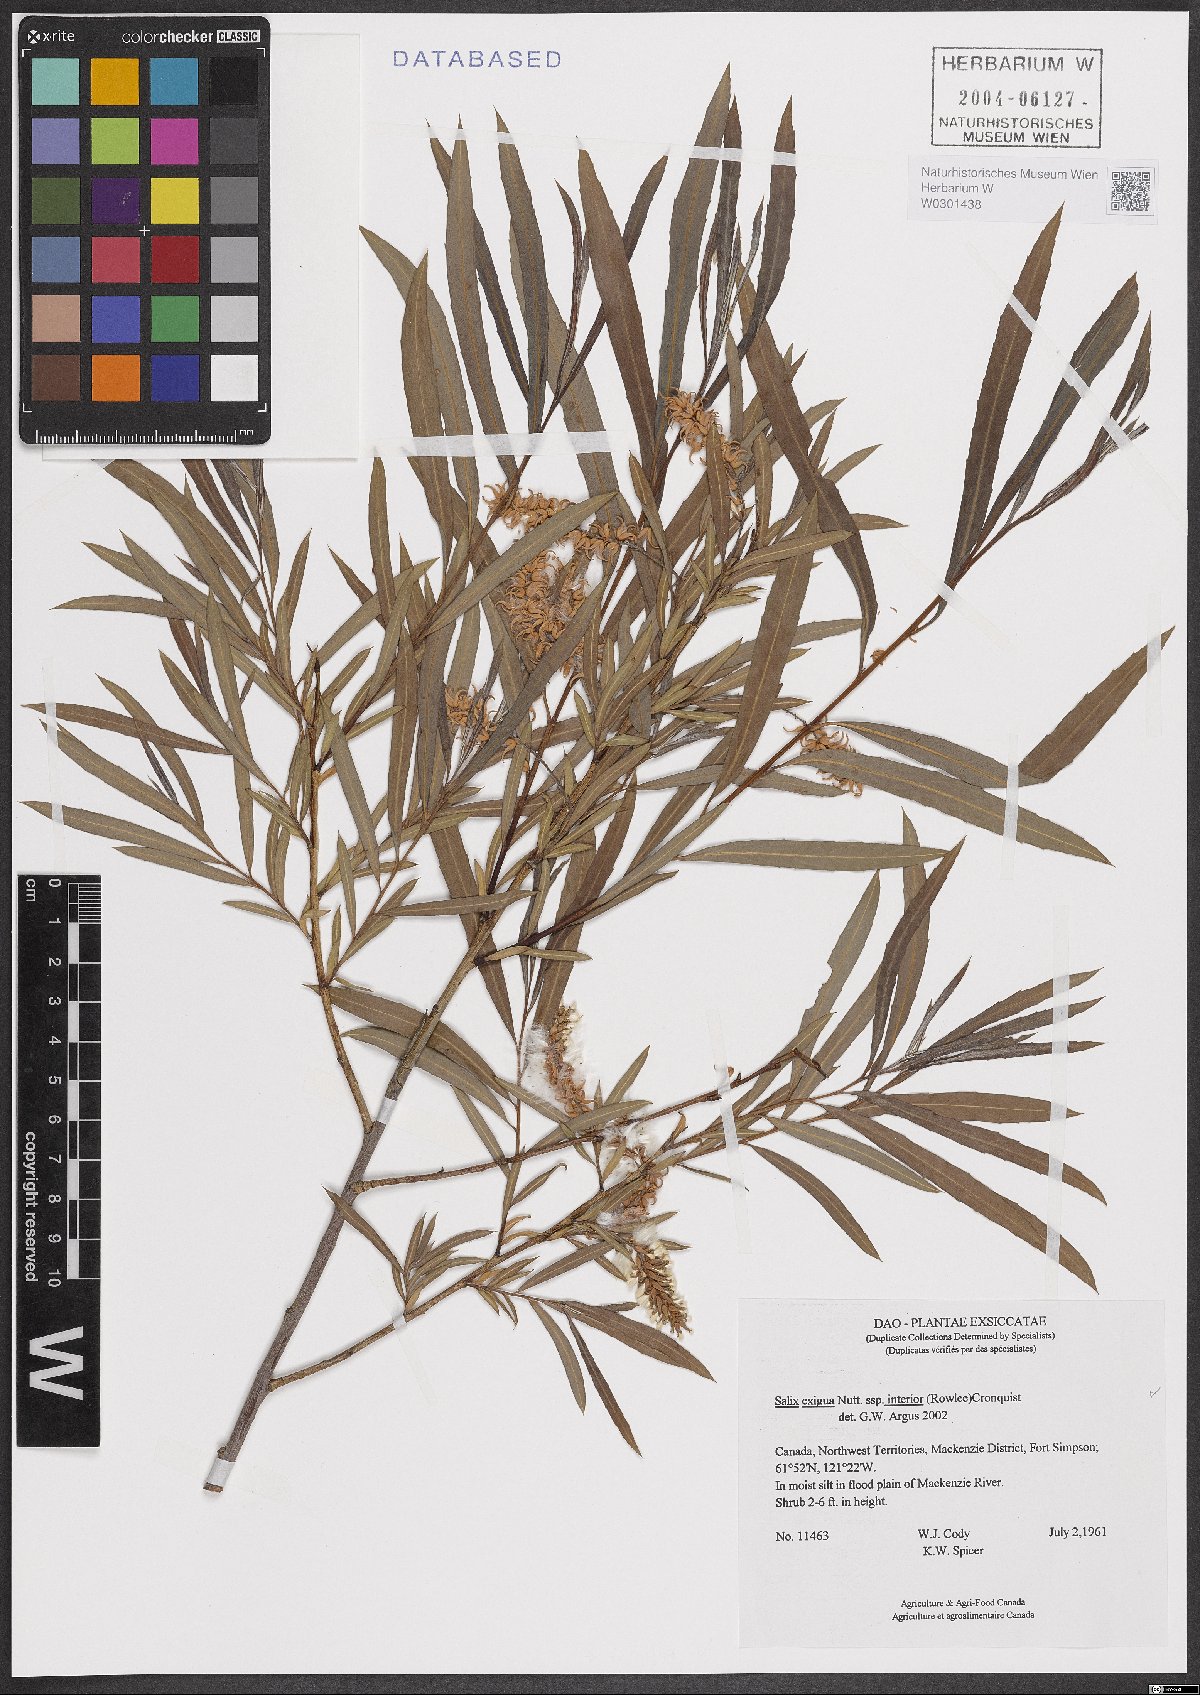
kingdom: Plantae
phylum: Tracheophyta
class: Magnoliopsida
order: Malpighiales
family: Salicaceae
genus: Salix
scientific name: Salix interior
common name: Sandbar willow
